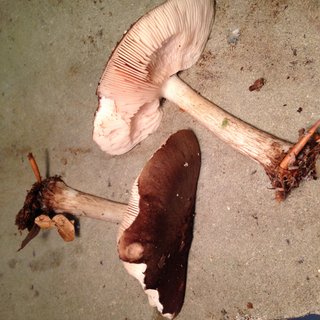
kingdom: Fungi
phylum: Basidiomycota
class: Agaricomycetes
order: Agaricales
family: Pluteaceae
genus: Pluteus
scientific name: Pluteus cervinus
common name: sodfarvet skærmhat
